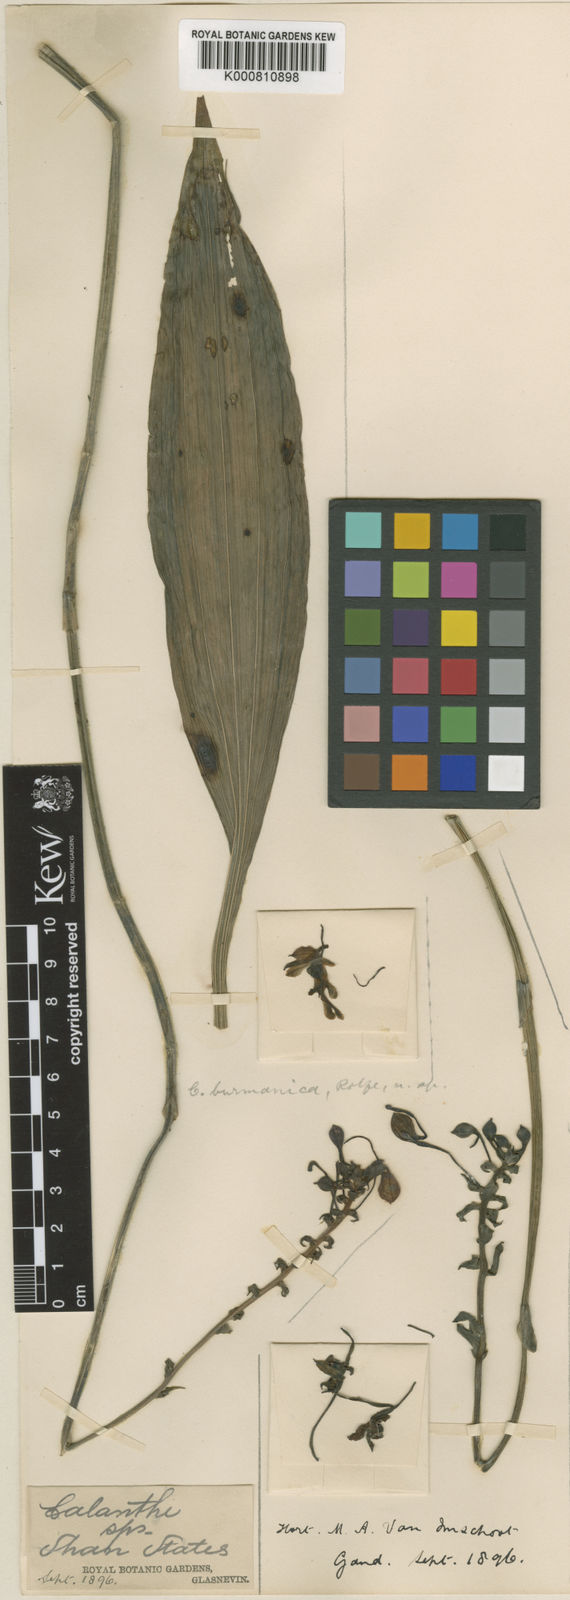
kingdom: Plantae
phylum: Tracheophyta
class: Liliopsida
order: Asparagales
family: Orchidaceae
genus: Calanthe
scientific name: Calanthe ceciliae
